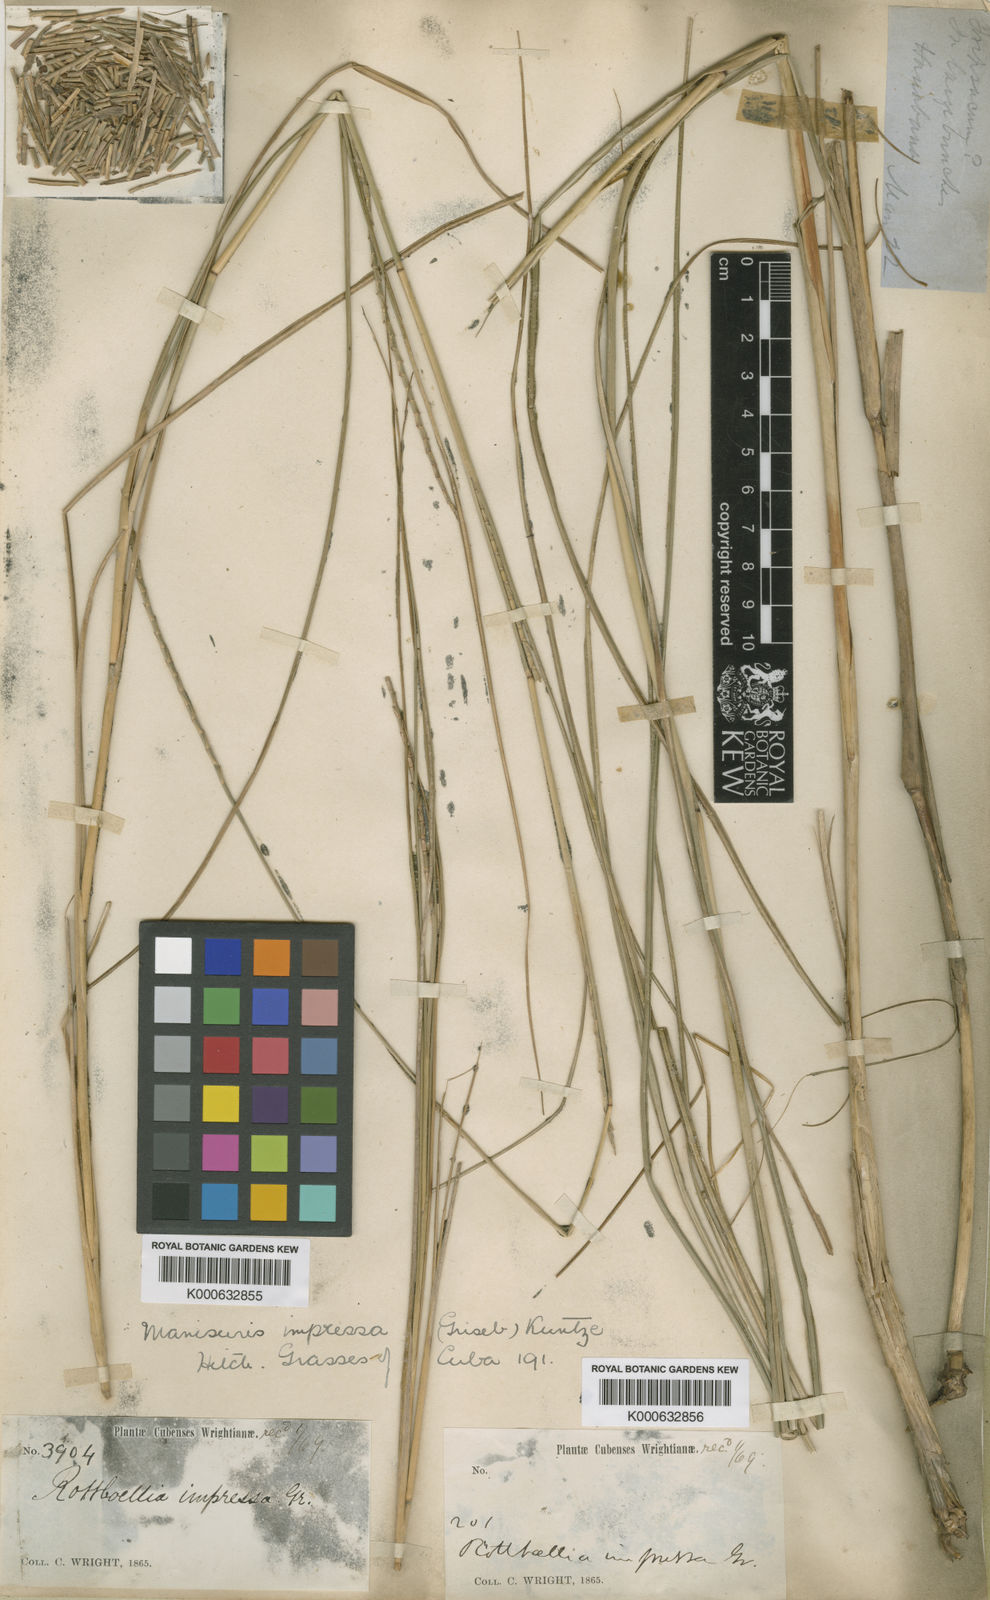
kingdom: Plantae
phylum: Tracheophyta
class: Liliopsida
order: Poales
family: Poaceae
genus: Rottboellia
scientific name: Rottboellia impressa
